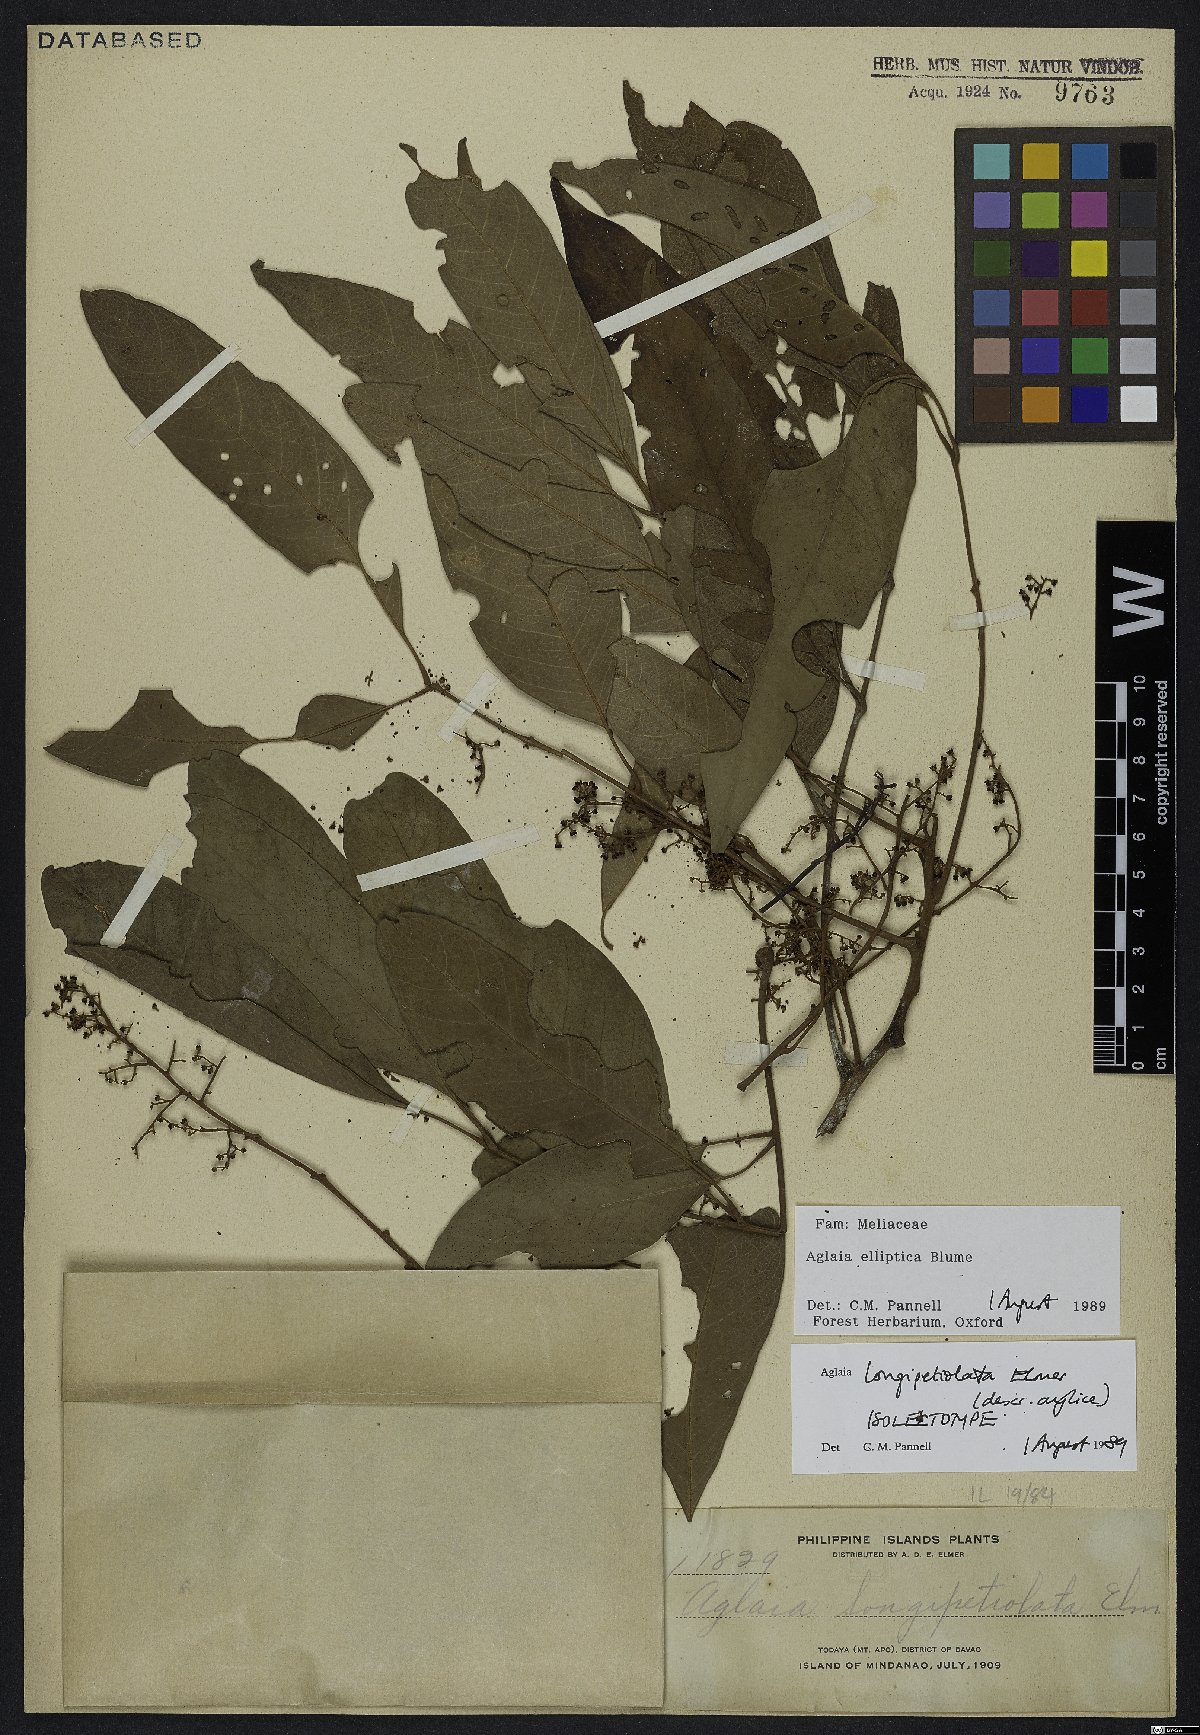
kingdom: Plantae
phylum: Tracheophyta
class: Magnoliopsida
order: Sapindales
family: Meliaceae
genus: Aglaia
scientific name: Aglaia elliptica
